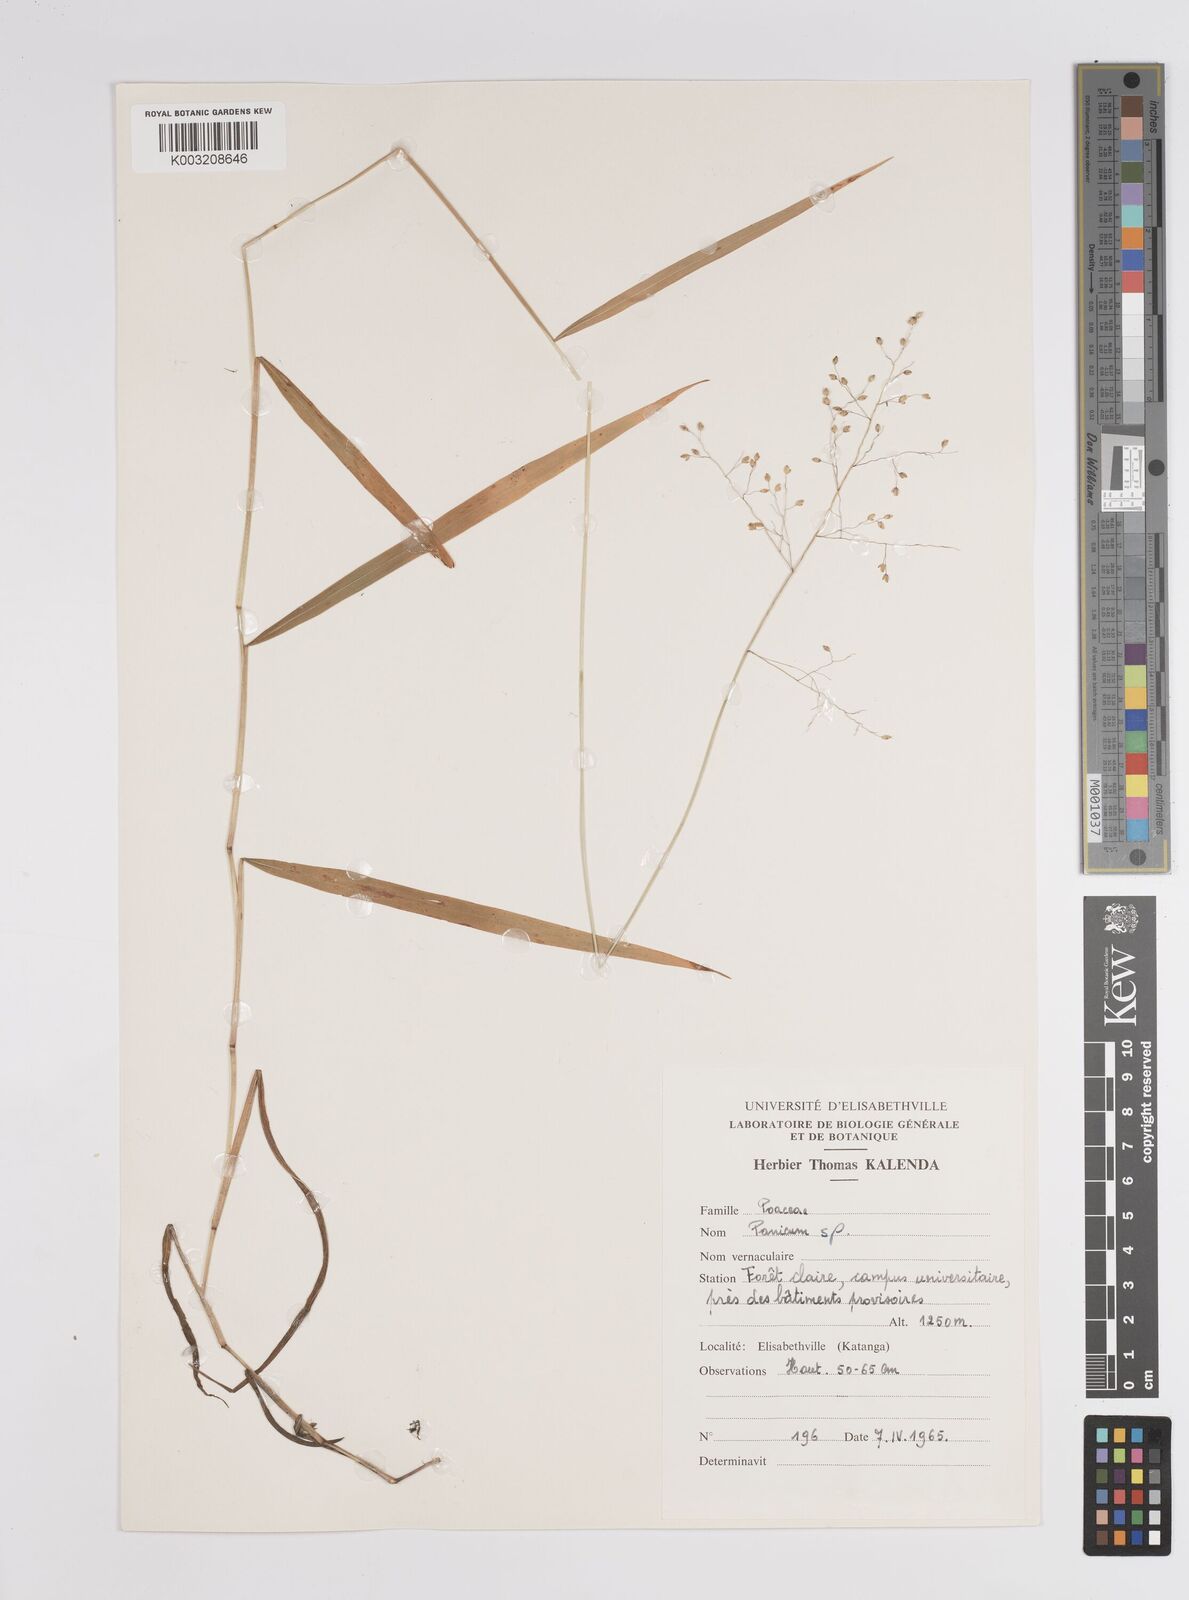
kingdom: Plantae
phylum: Tracheophyta
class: Liliopsida
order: Poales
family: Poaceae
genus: Panicum
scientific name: Panicum
